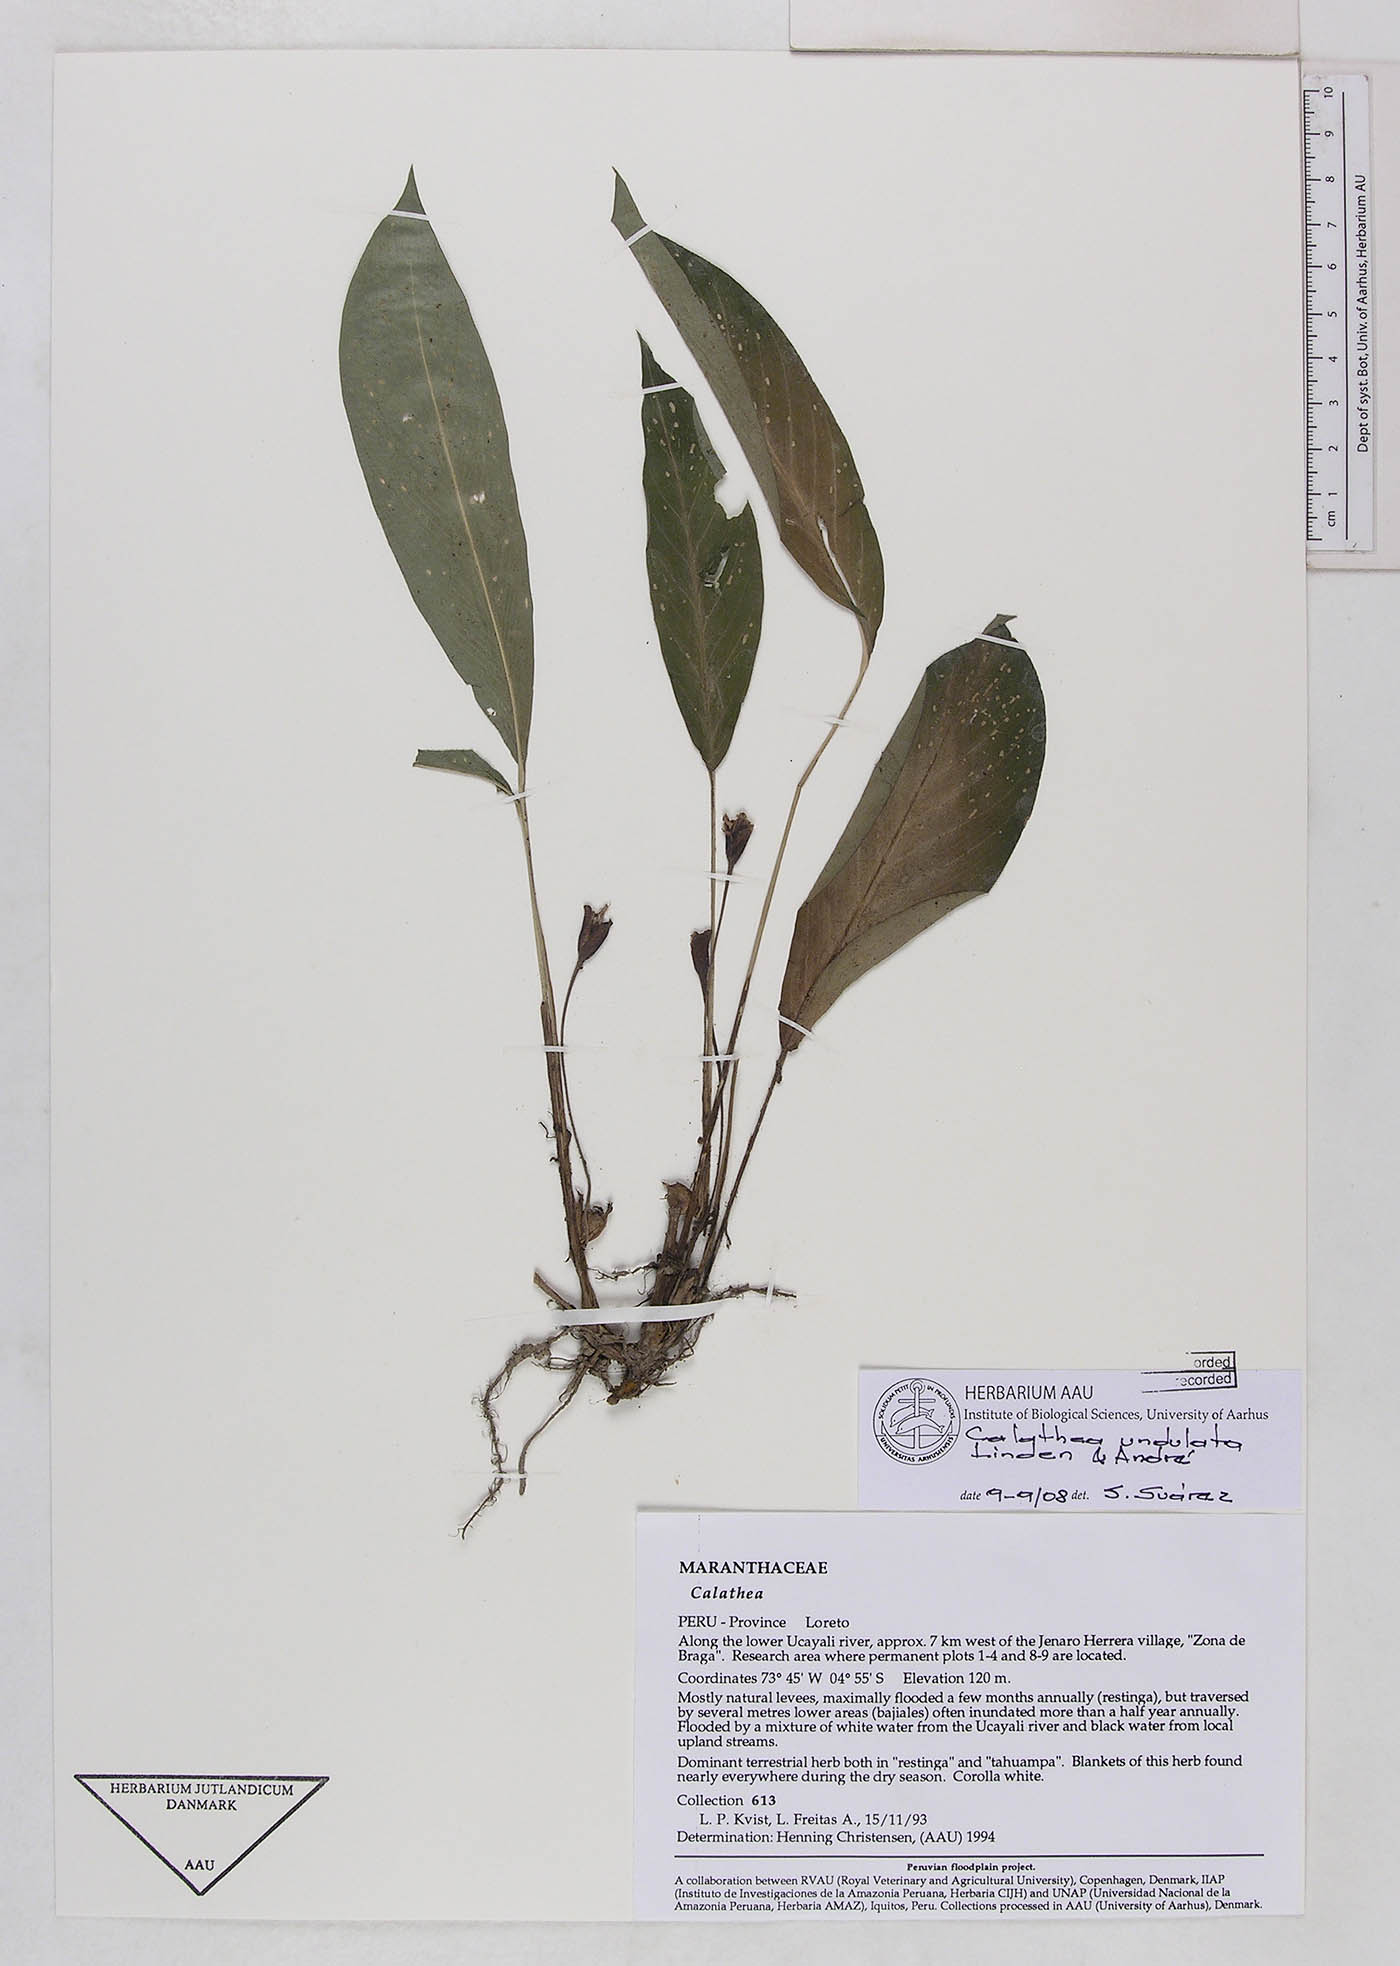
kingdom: Plantae
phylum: Tracheophyta
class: Liliopsida
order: Zingiberales
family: Marantaceae
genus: Goeppertia
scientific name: Goeppertia undulata
